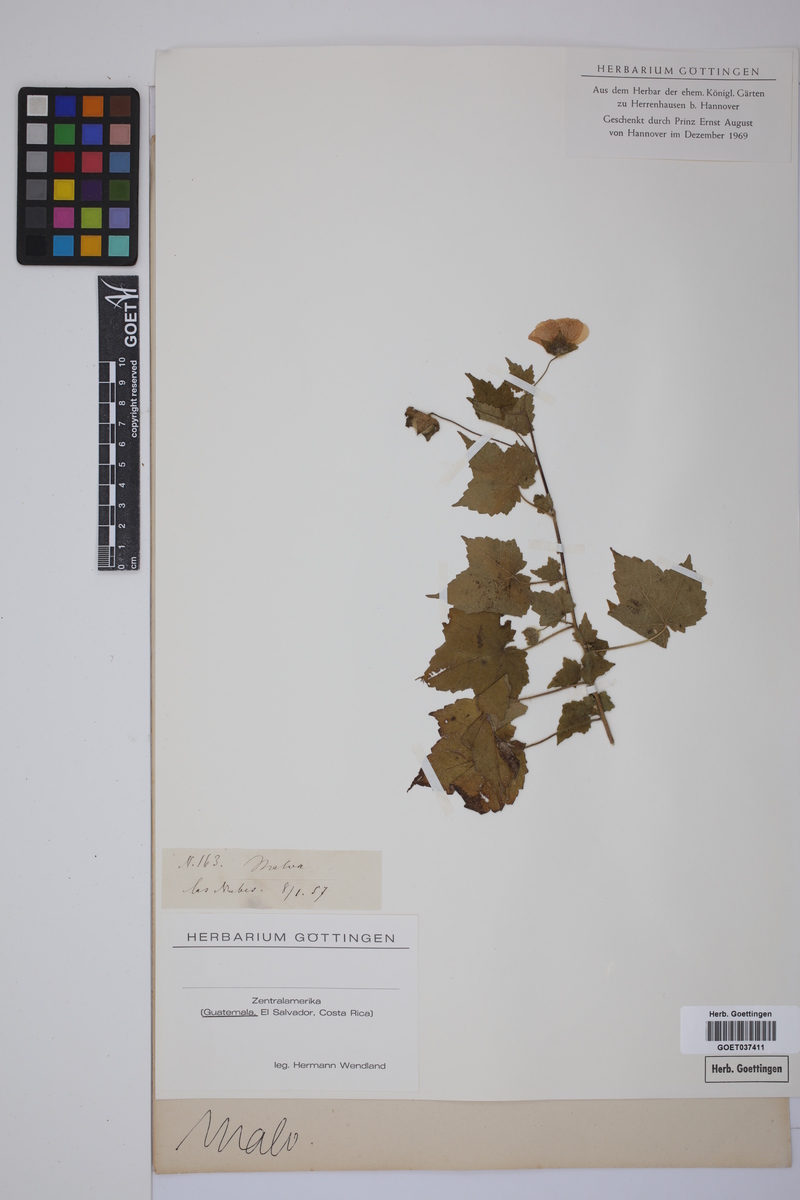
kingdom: Plantae
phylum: Tracheophyta
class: Magnoliopsida
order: Malvales
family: Malvaceae
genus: Malva
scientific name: Malva
